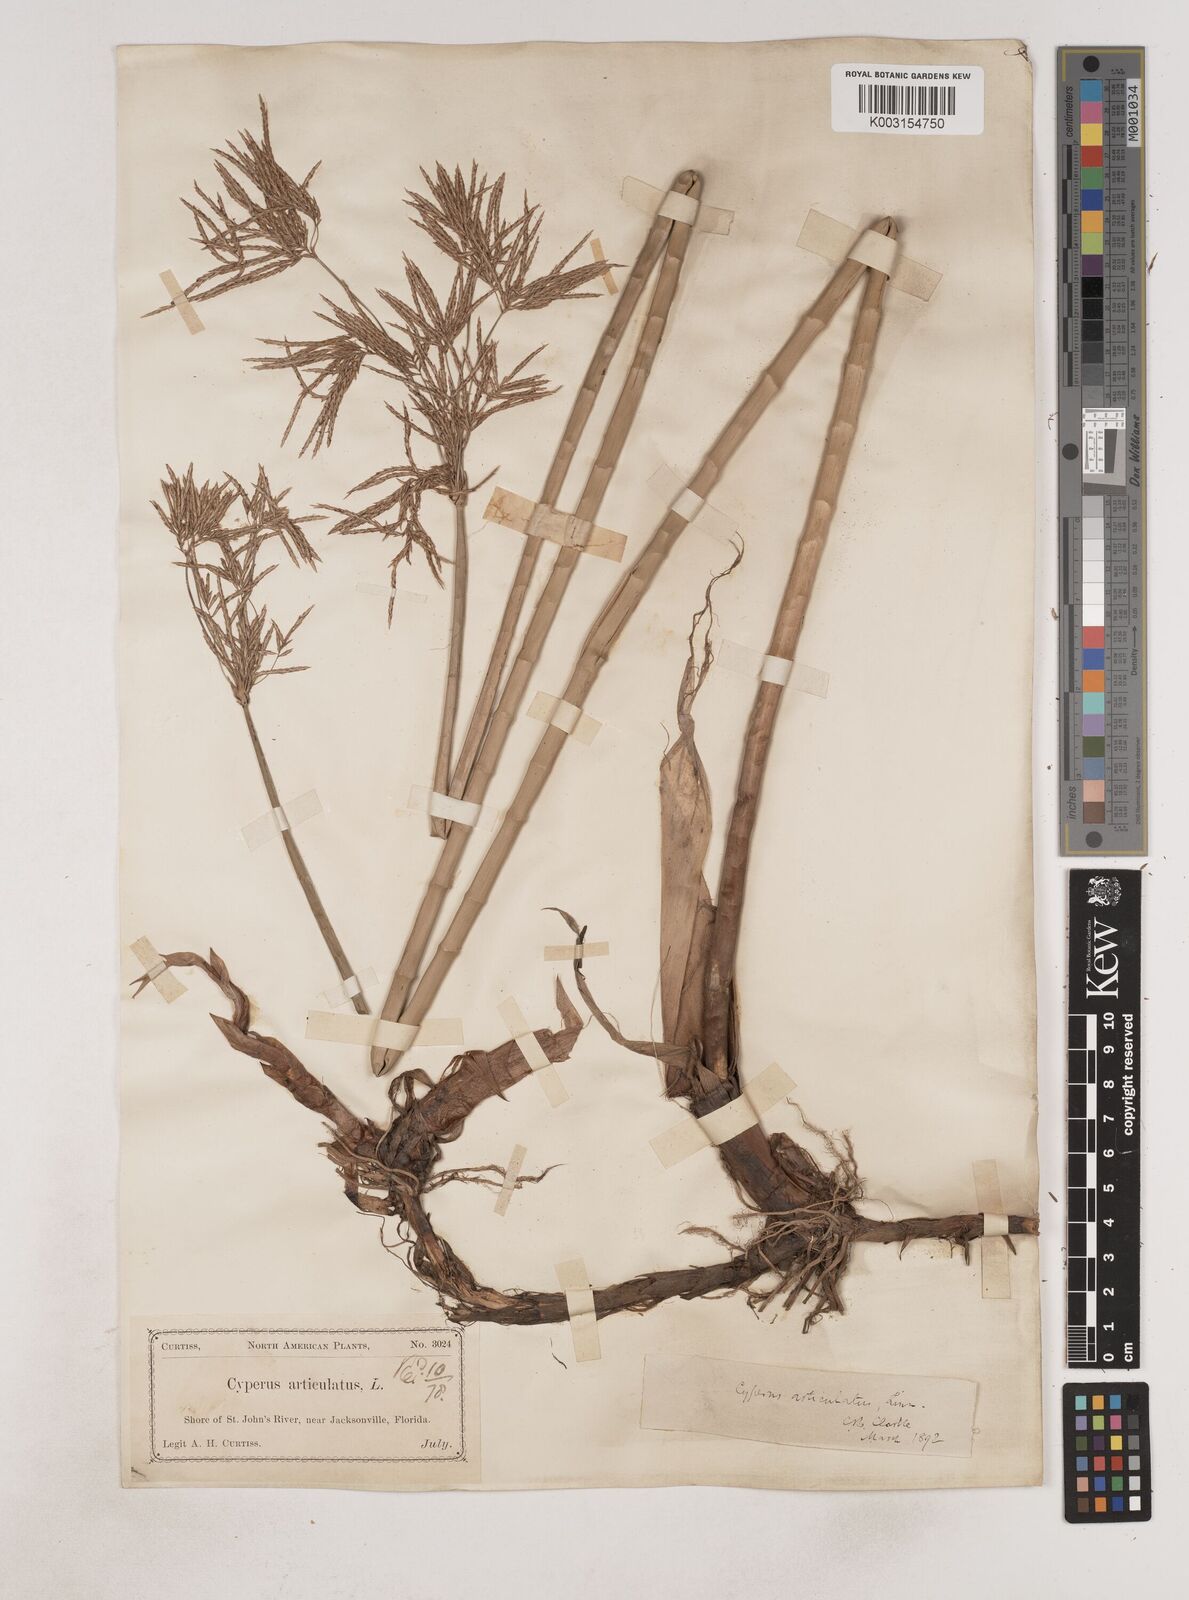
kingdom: Plantae
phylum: Tracheophyta
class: Liliopsida
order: Poales
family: Cyperaceae
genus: Cyperus
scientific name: Cyperus articulatus
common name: Jointed flatsedge
